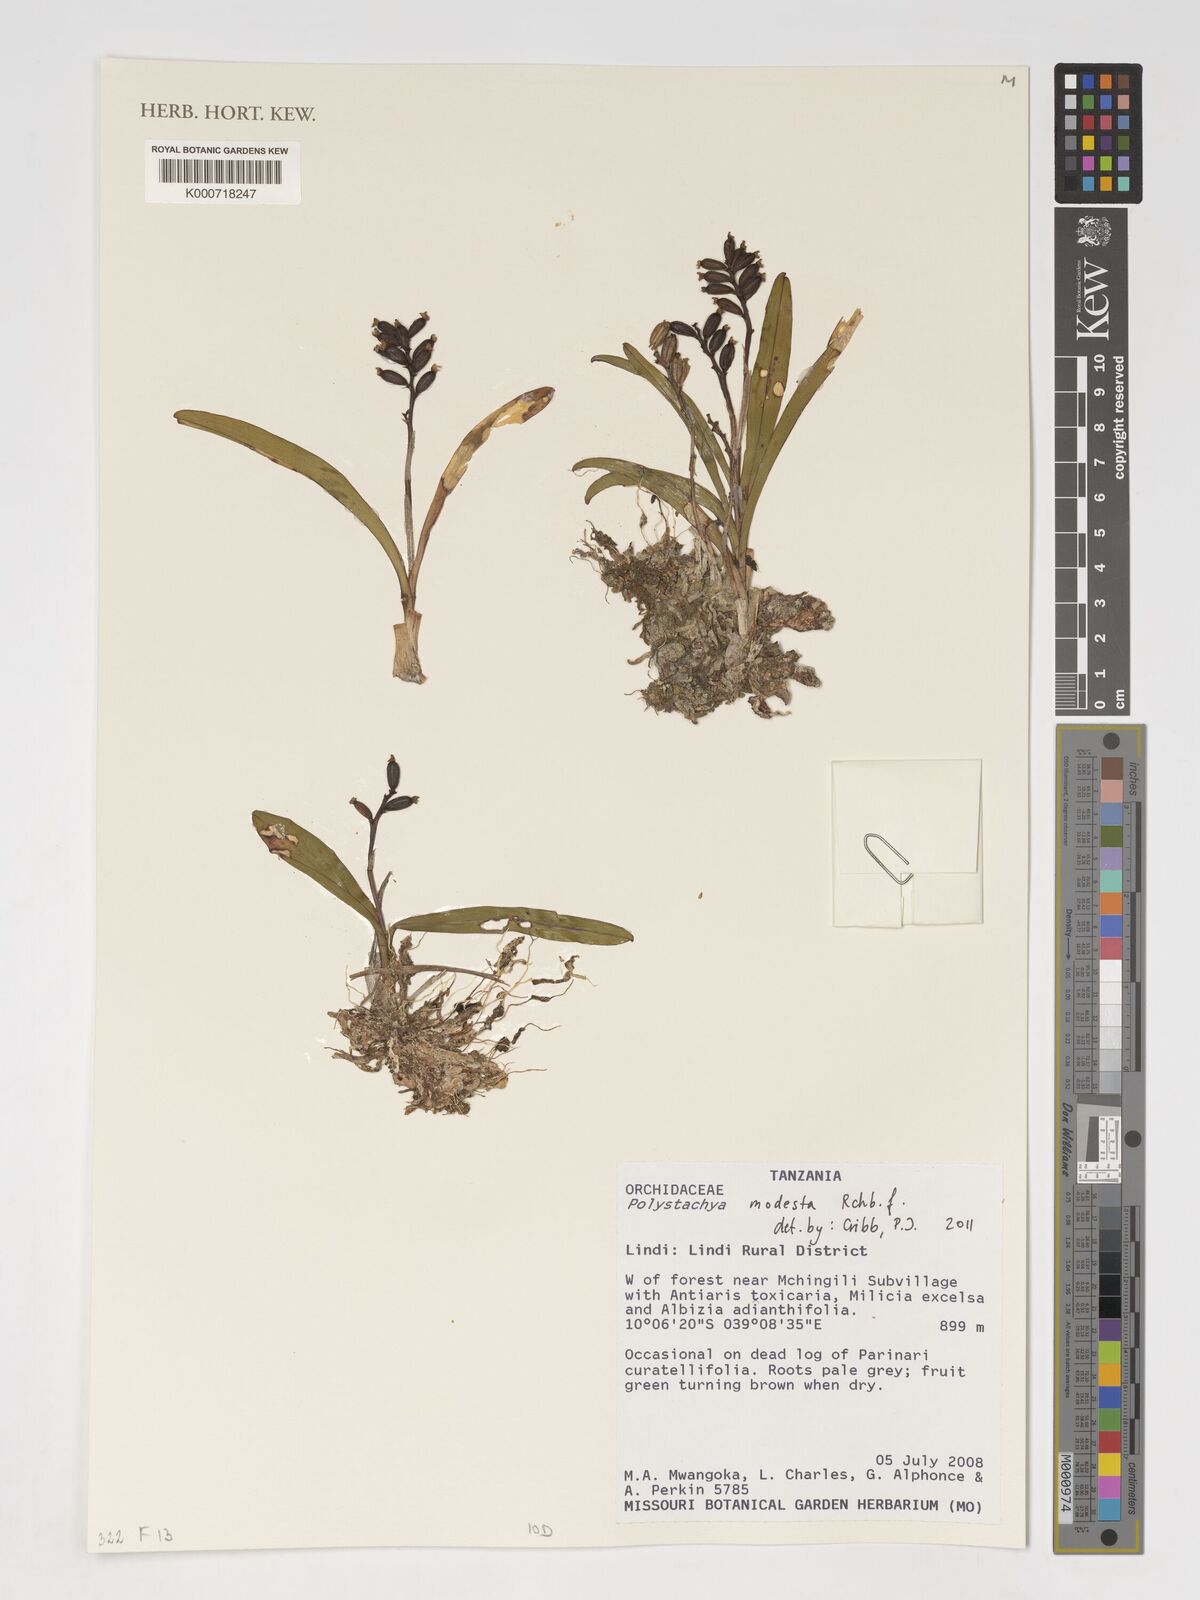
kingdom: Plantae
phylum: Tracheophyta
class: Liliopsida
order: Asparagales
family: Orchidaceae
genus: Polystachya
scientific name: Polystachya modesta
